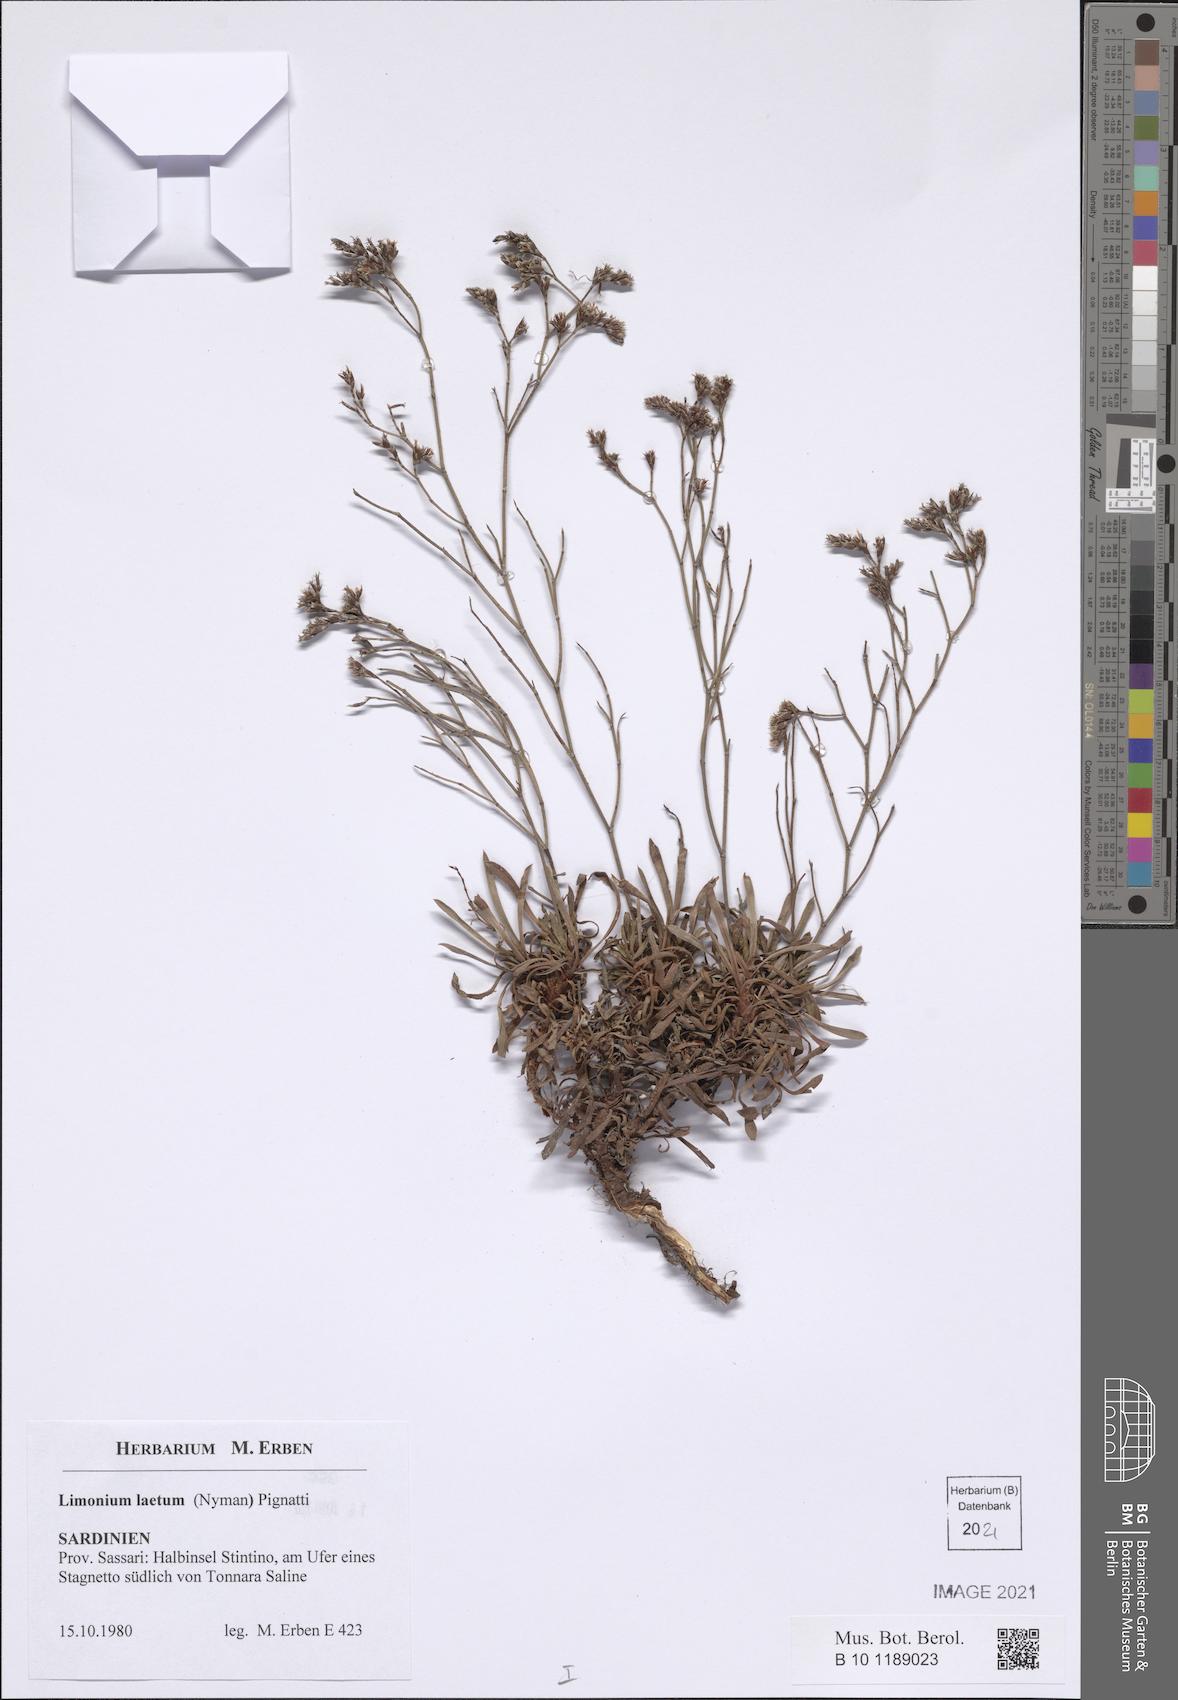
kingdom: Plantae
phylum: Tracheophyta
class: Magnoliopsida
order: Caryophyllales
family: Plumbaginaceae
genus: Limonium
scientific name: Limonium laetum
